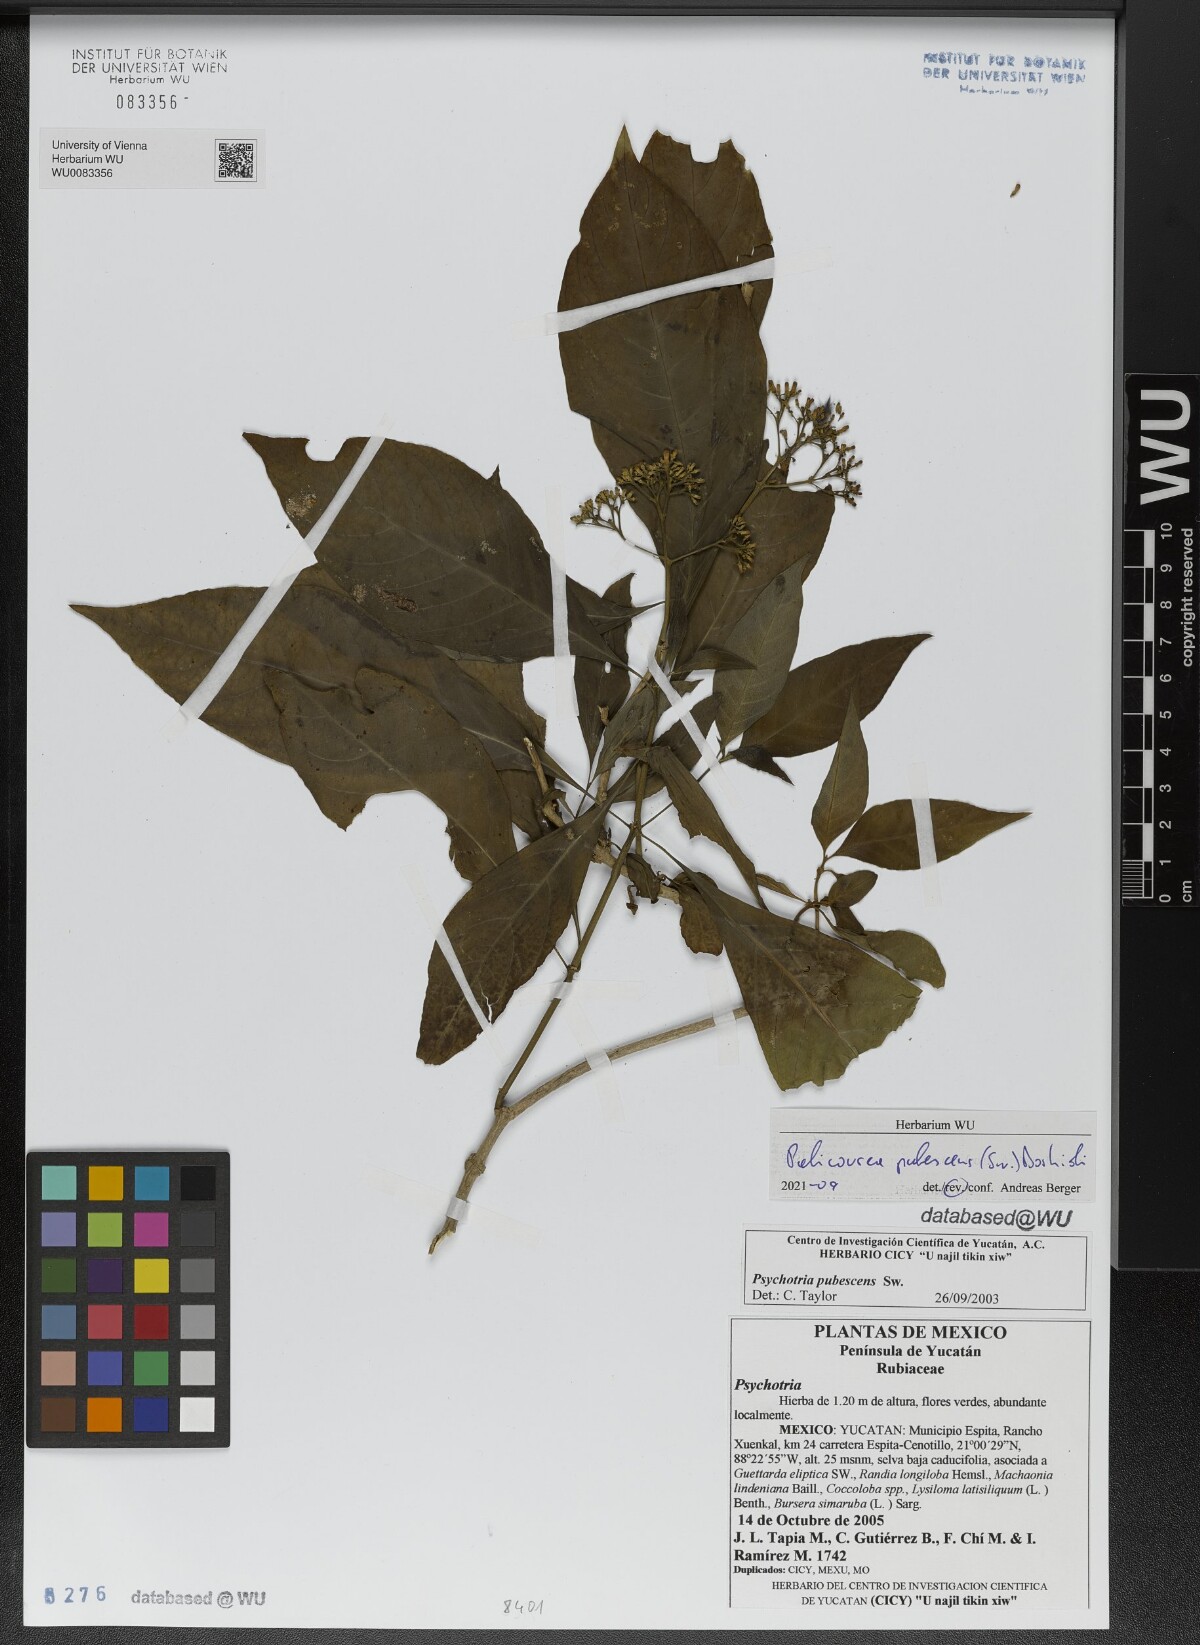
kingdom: Plantae
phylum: Tracheophyta
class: Magnoliopsida
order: Gentianales
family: Rubiaceae
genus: Palicourea
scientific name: Palicourea pubescens
